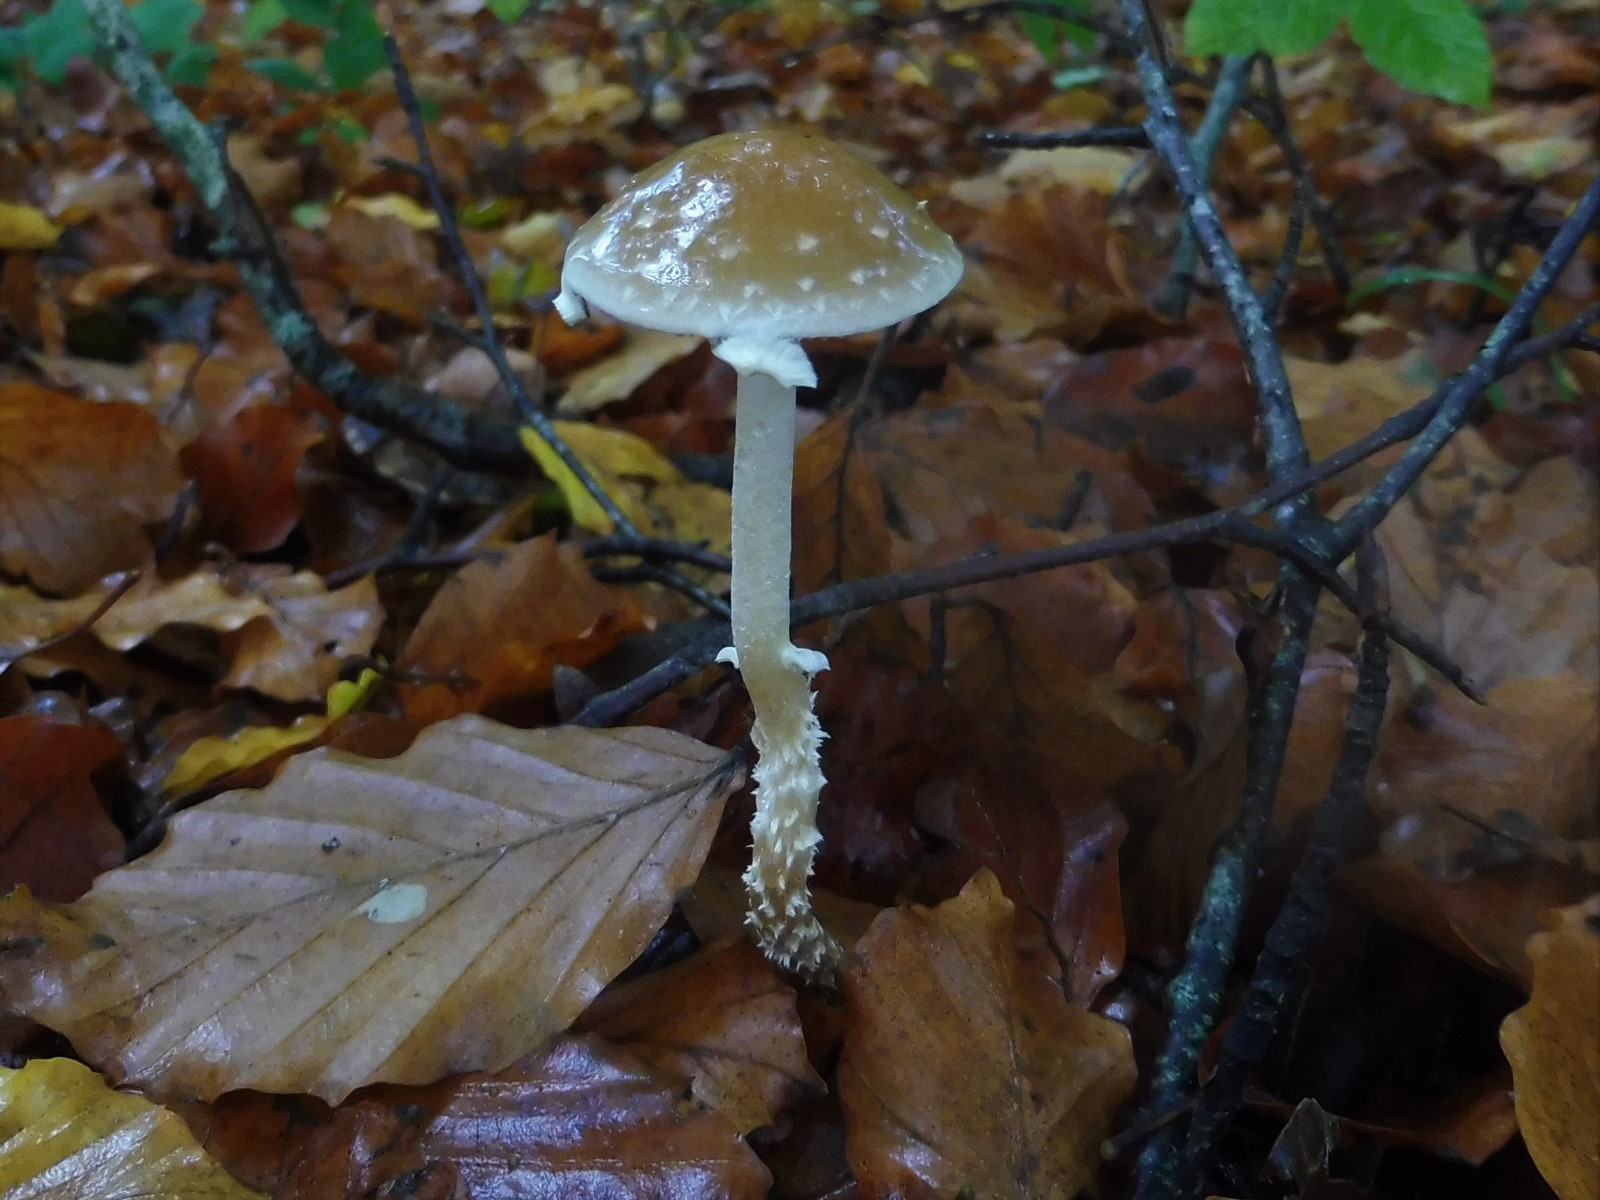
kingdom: Fungi
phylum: Basidiomycota
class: Agaricomycetes
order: Agaricales
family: Strophariaceae
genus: Leratiomyces
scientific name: Leratiomyces squamosus
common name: skællet bredblad
